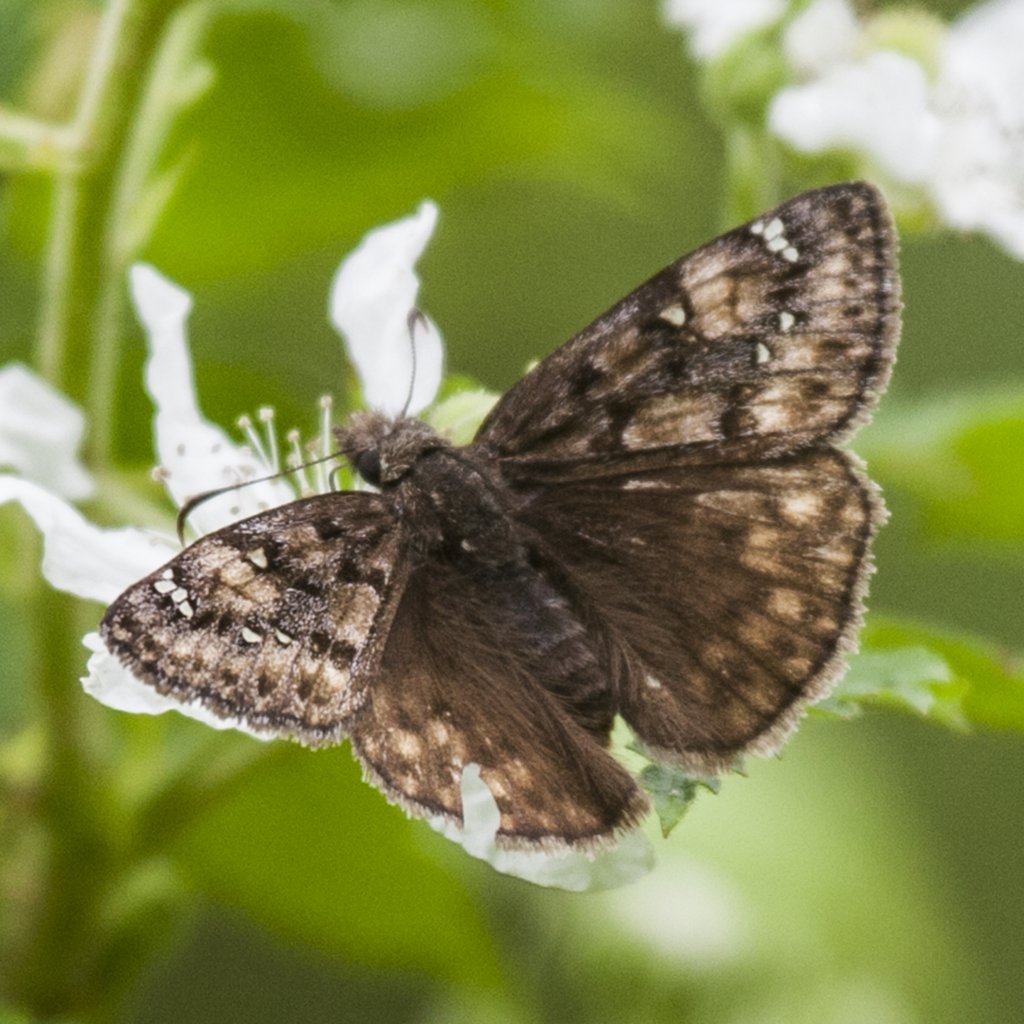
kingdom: Animalia
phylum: Arthropoda
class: Insecta
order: Lepidoptera
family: Hesperiidae
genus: Gesta
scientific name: Gesta
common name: Juvenal's Duskywing
